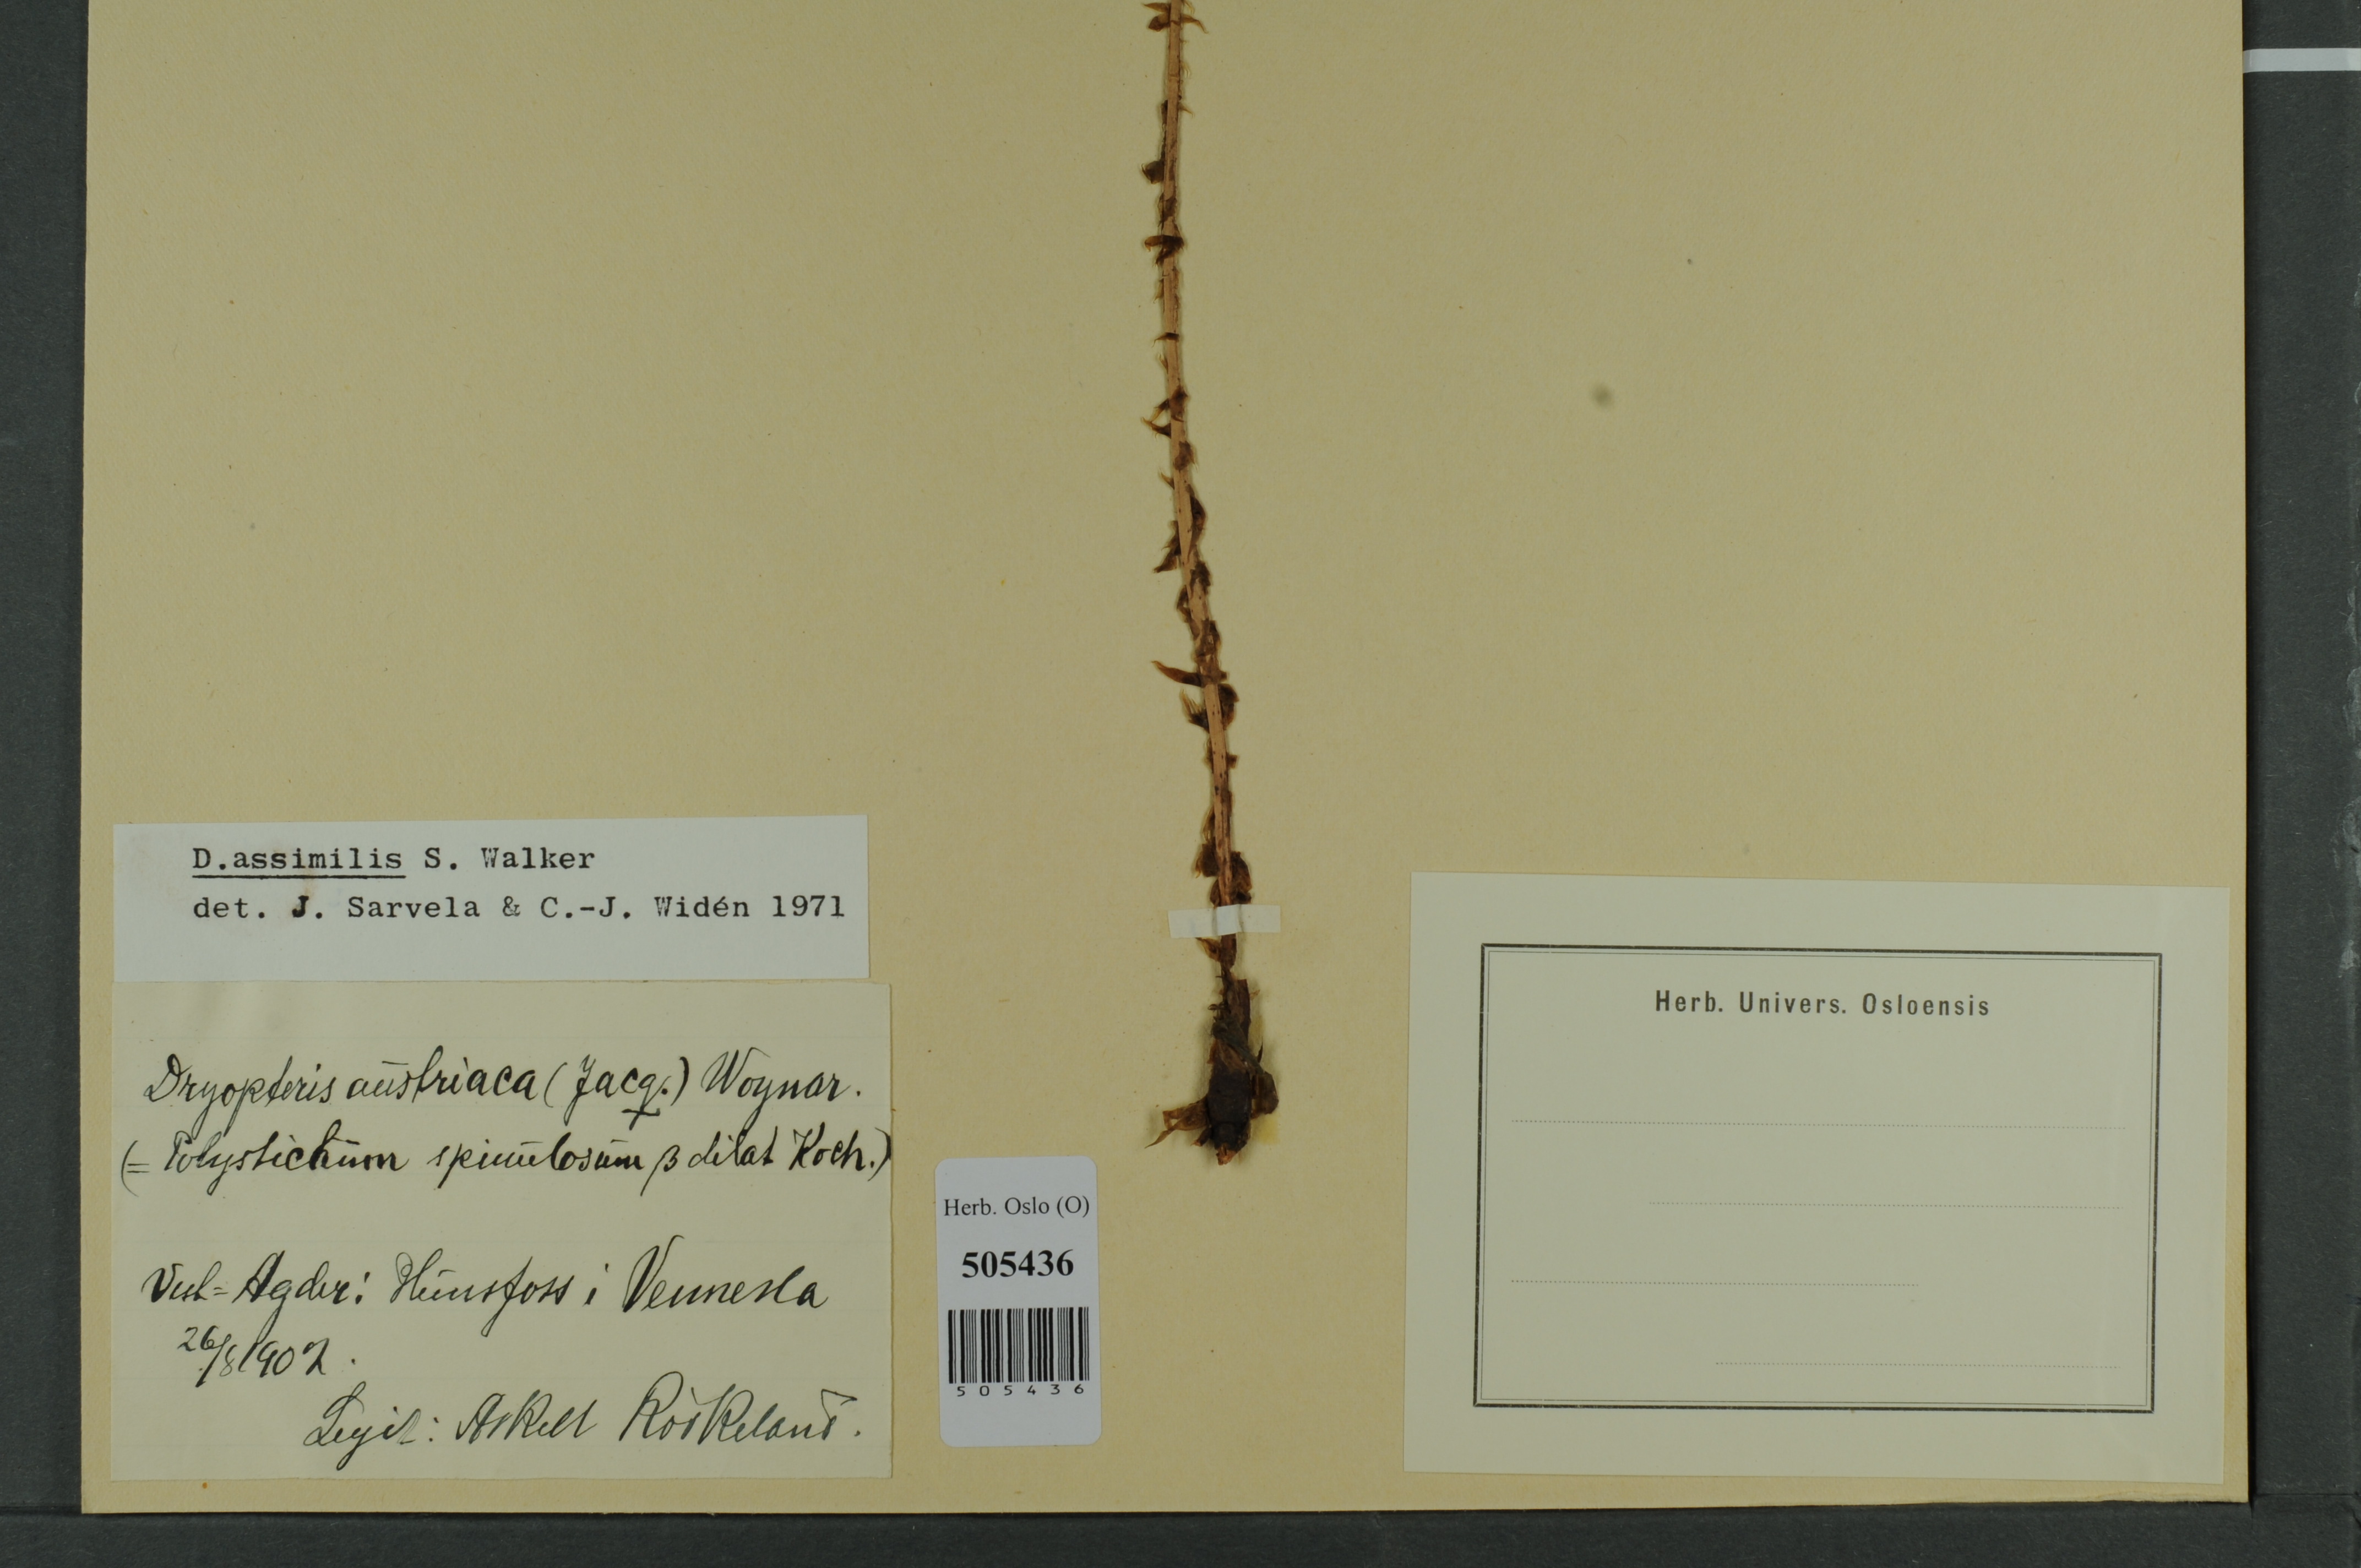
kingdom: Plantae
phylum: Tracheophyta
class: Polypodiopsida
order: Polypodiales
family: Dryopteridaceae
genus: Dryopteris
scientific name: Dryopteris expansa
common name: Northern buckler fern
